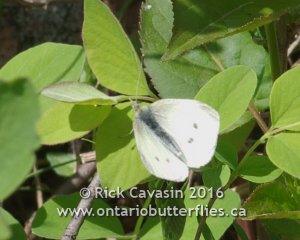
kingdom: Animalia
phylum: Arthropoda
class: Insecta
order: Lepidoptera
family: Pieridae
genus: Pieris
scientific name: Pieris rapae
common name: Cabbage White
